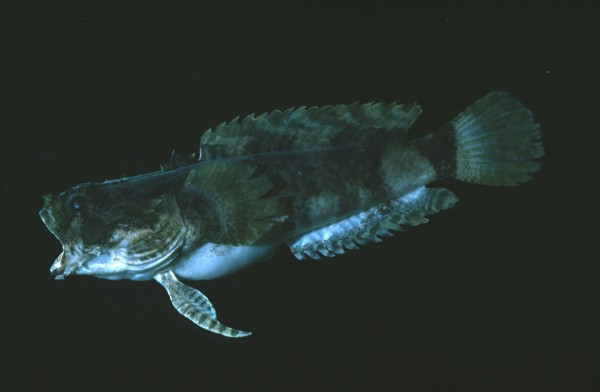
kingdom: Animalia
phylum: Chordata
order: Batrachoidiformes
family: Batrachoididae
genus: Chatrabus
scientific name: Chatrabus melanurus
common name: Humpback toadfish
